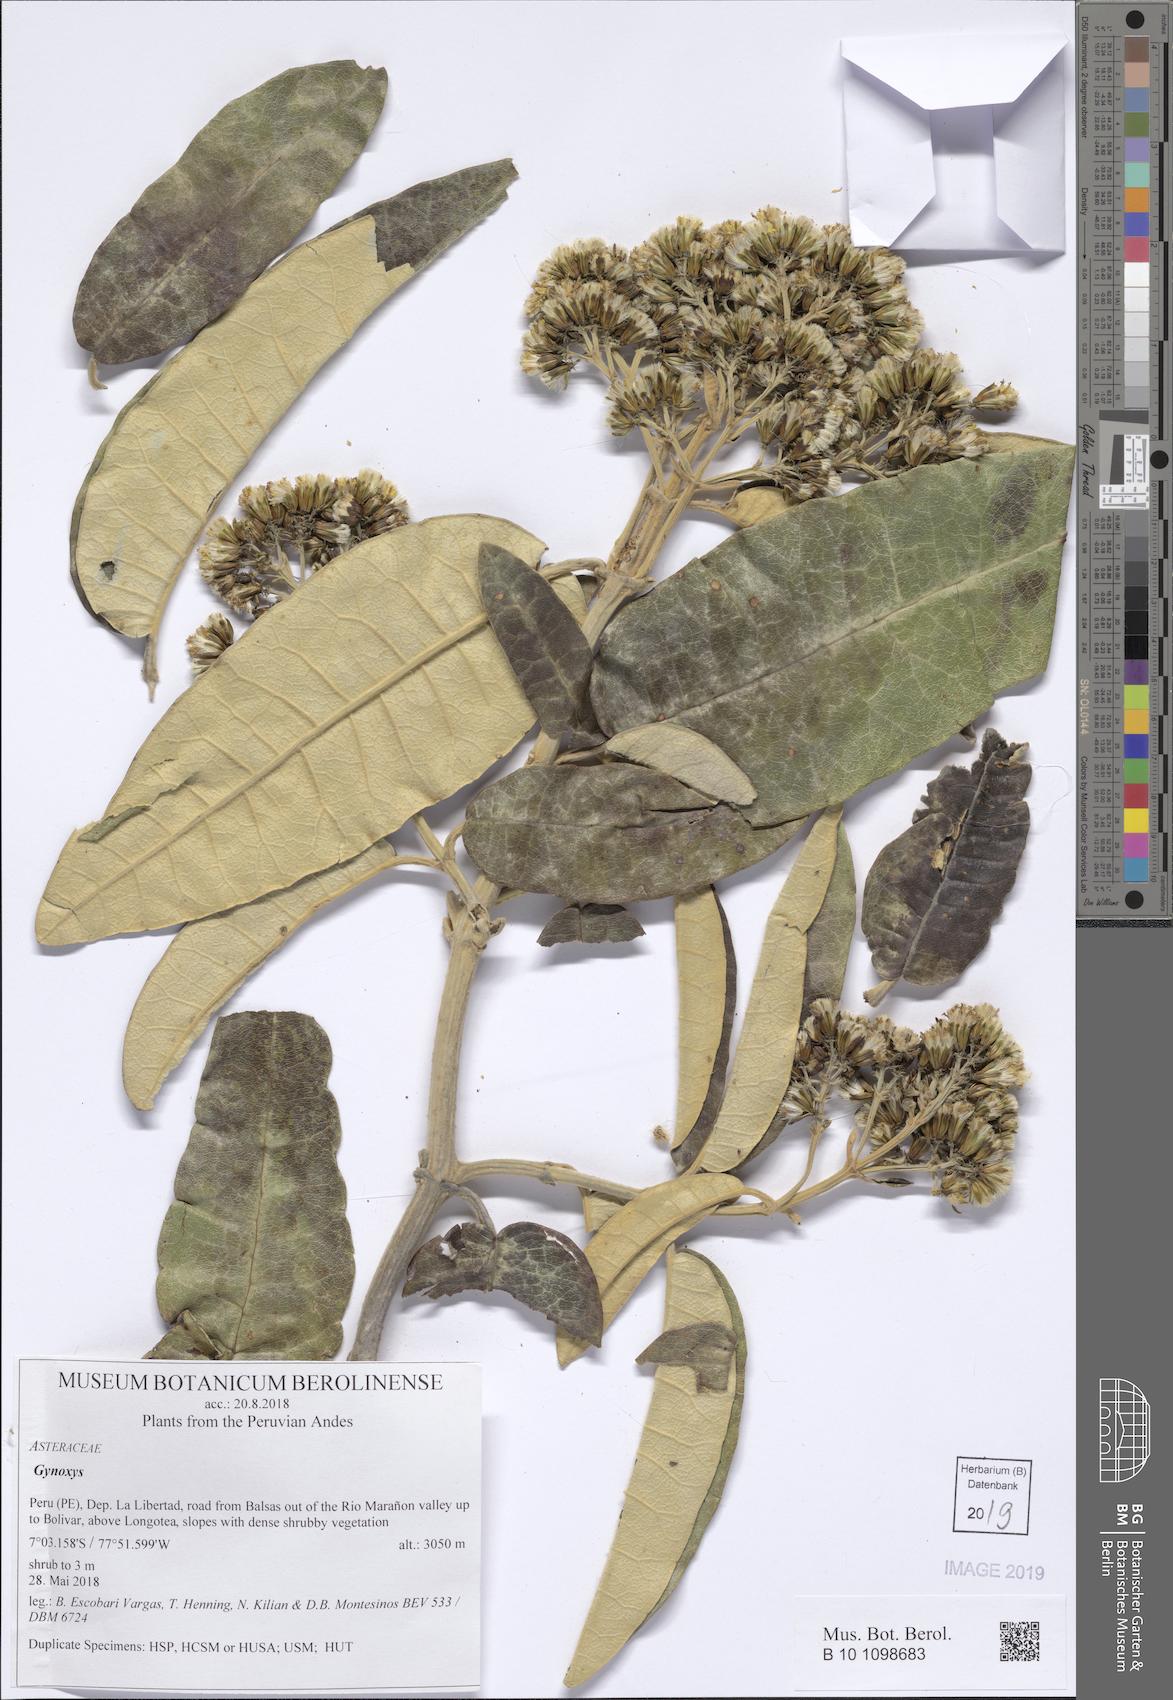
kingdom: Plantae
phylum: Tracheophyta
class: Magnoliopsida
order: Asterales
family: Asteraceae
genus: Gynoxys
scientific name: Gynoxys
